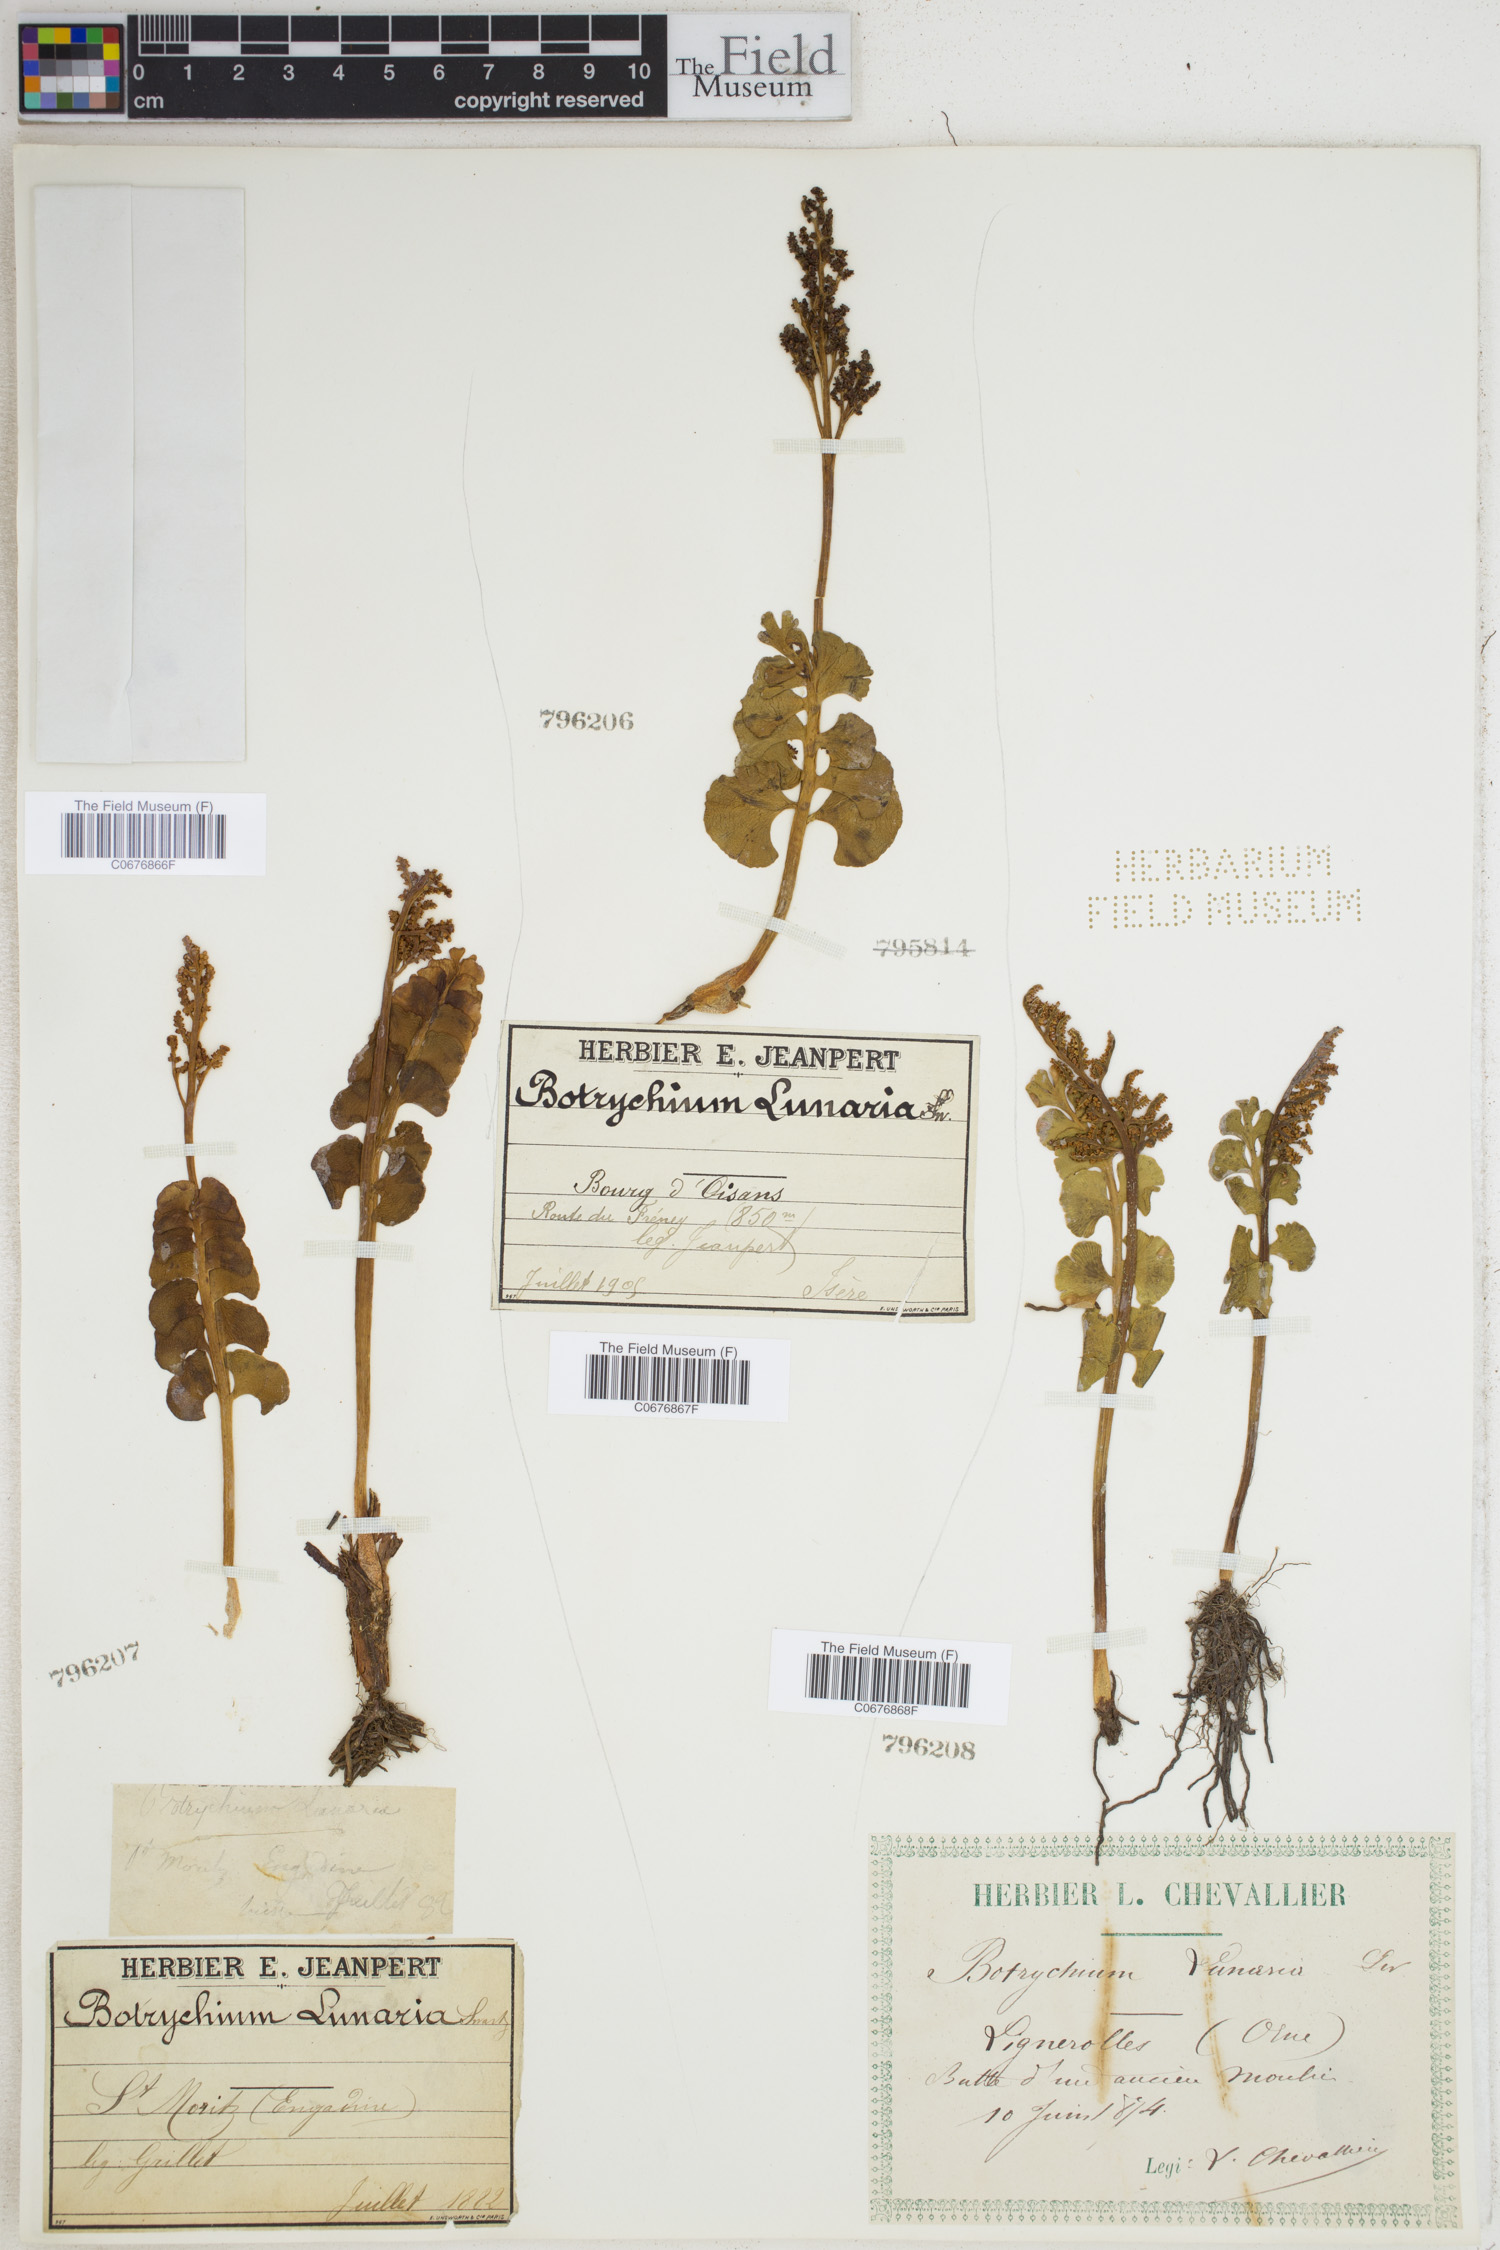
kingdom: Plantae
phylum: Tracheophyta
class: Polypodiopsida
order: Ophioglossales
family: Ophioglossaceae
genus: Botrychium
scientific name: Botrychium lunaria
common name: Moonwort
